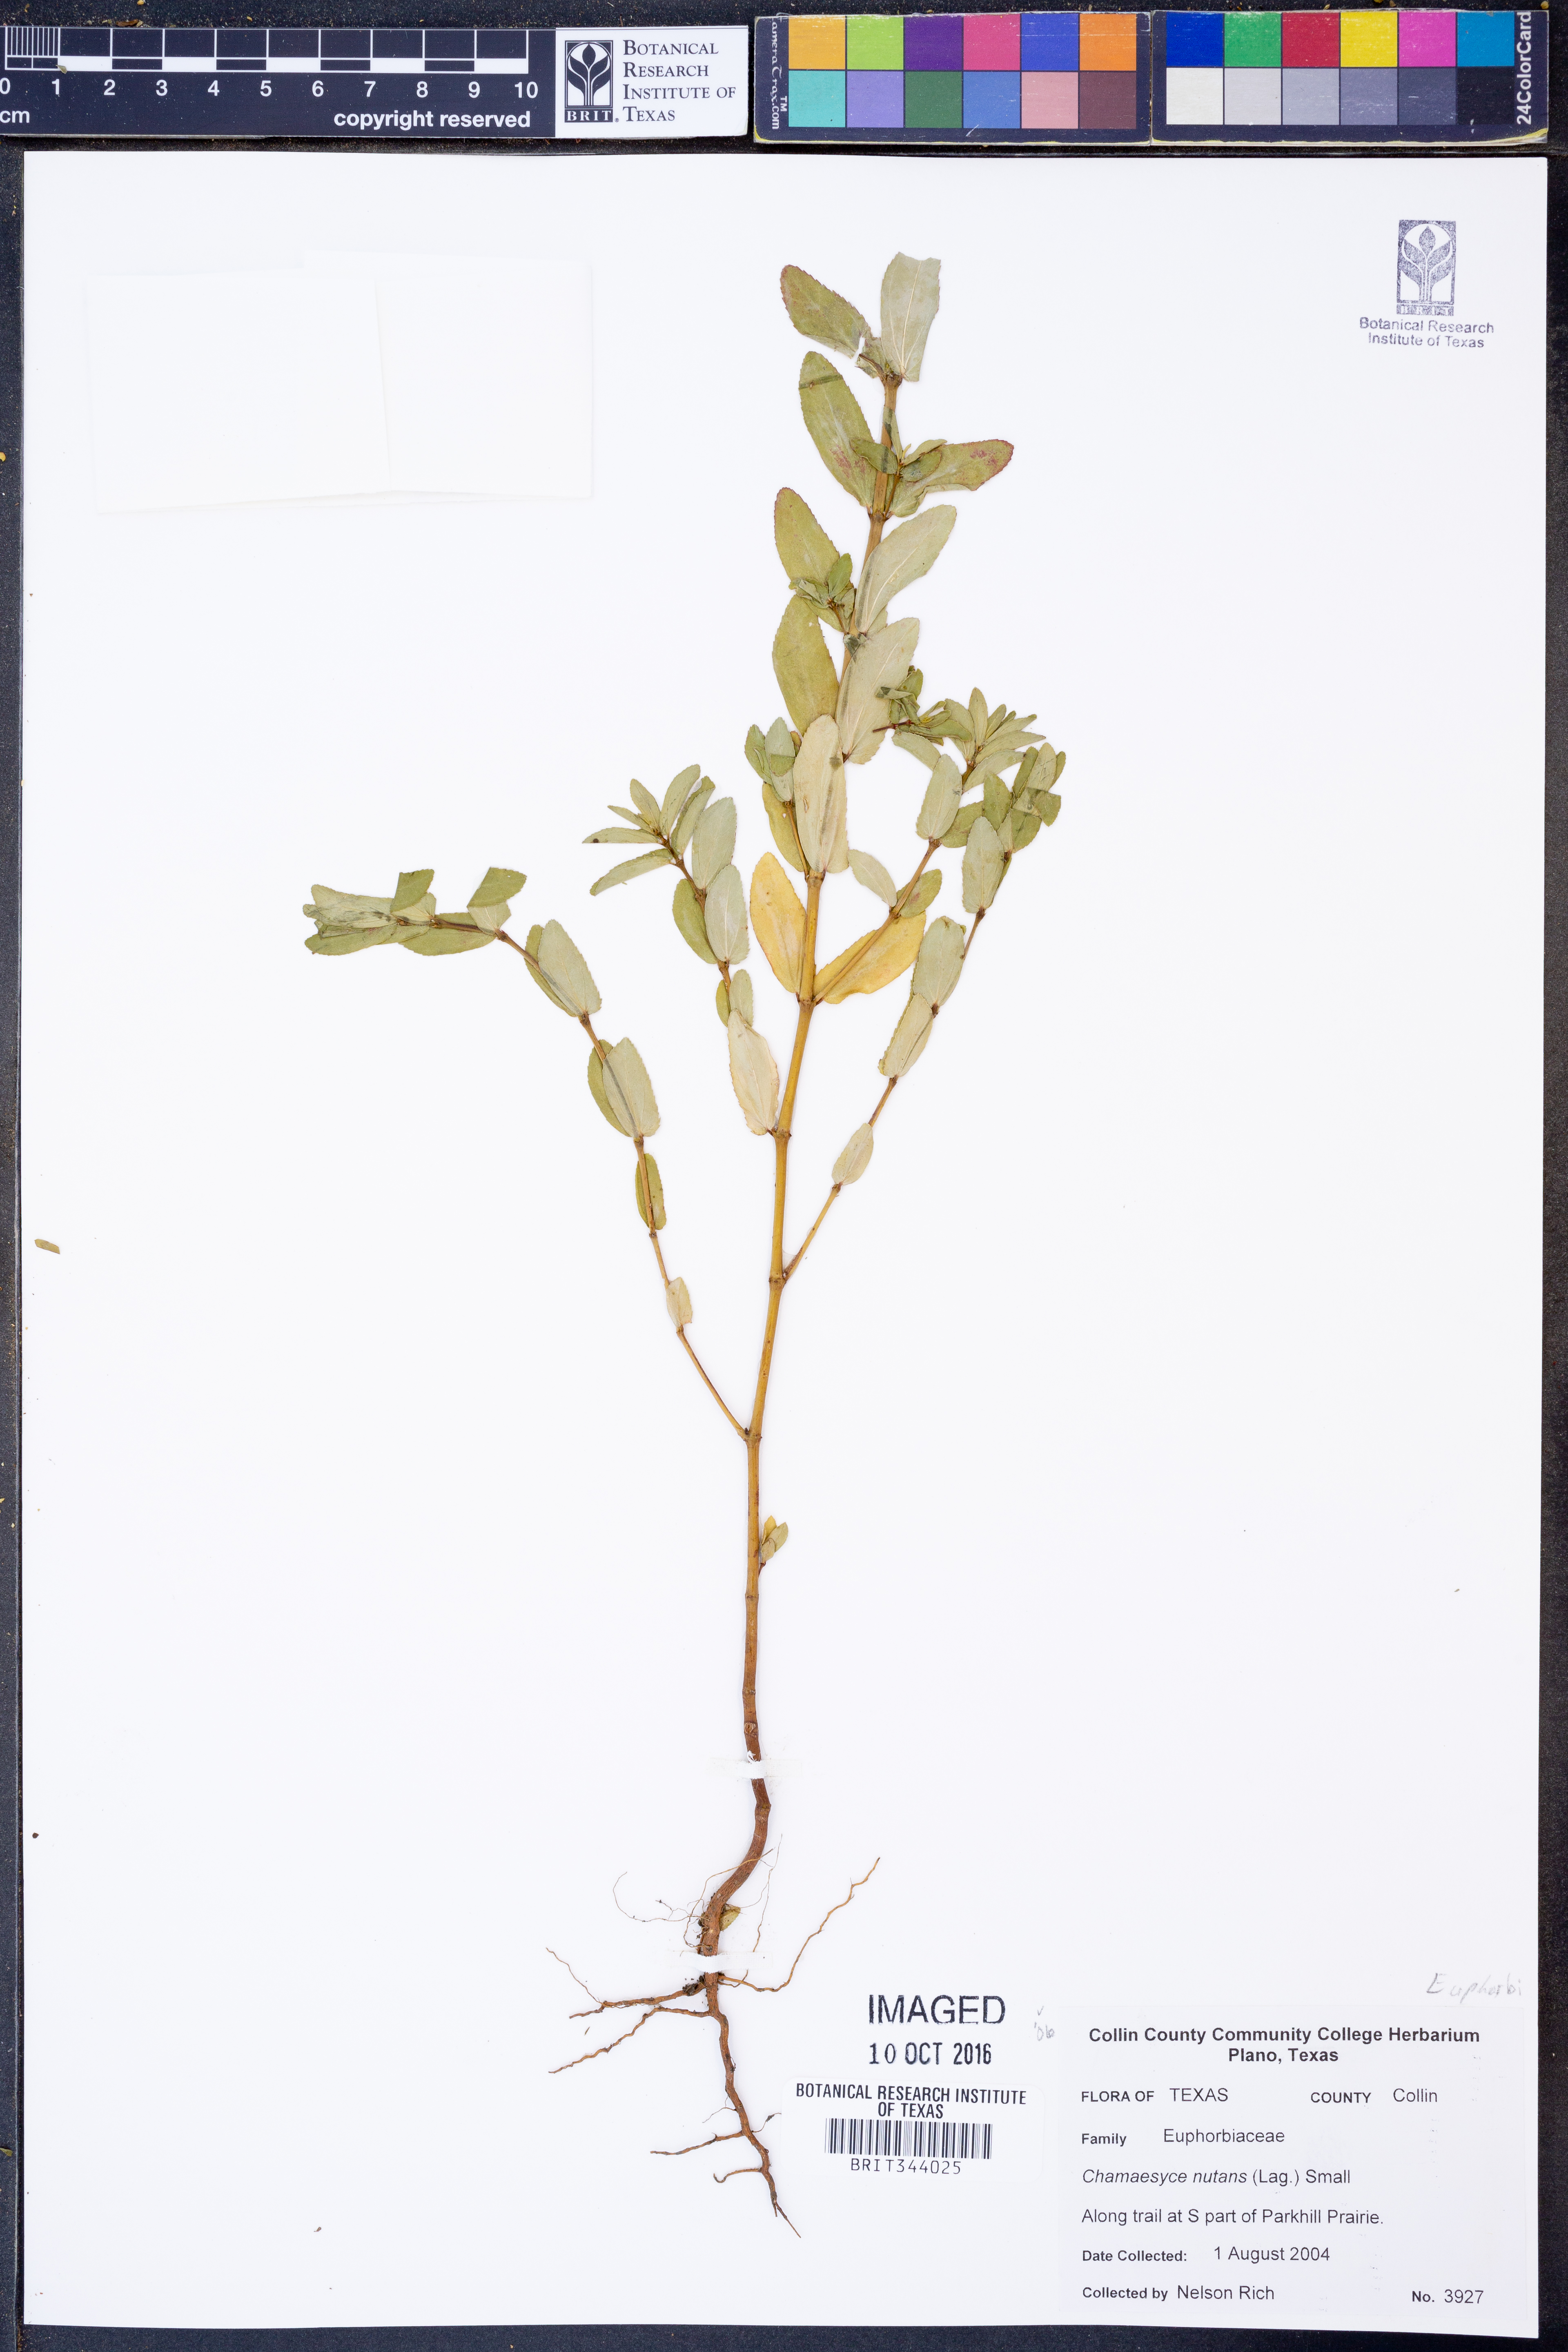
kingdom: Plantae
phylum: Tracheophyta
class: Magnoliopsida
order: Malpighiales
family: Euphorbiaceae
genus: Euphorbia
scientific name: Euphorbia nutans
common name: Eyebane
